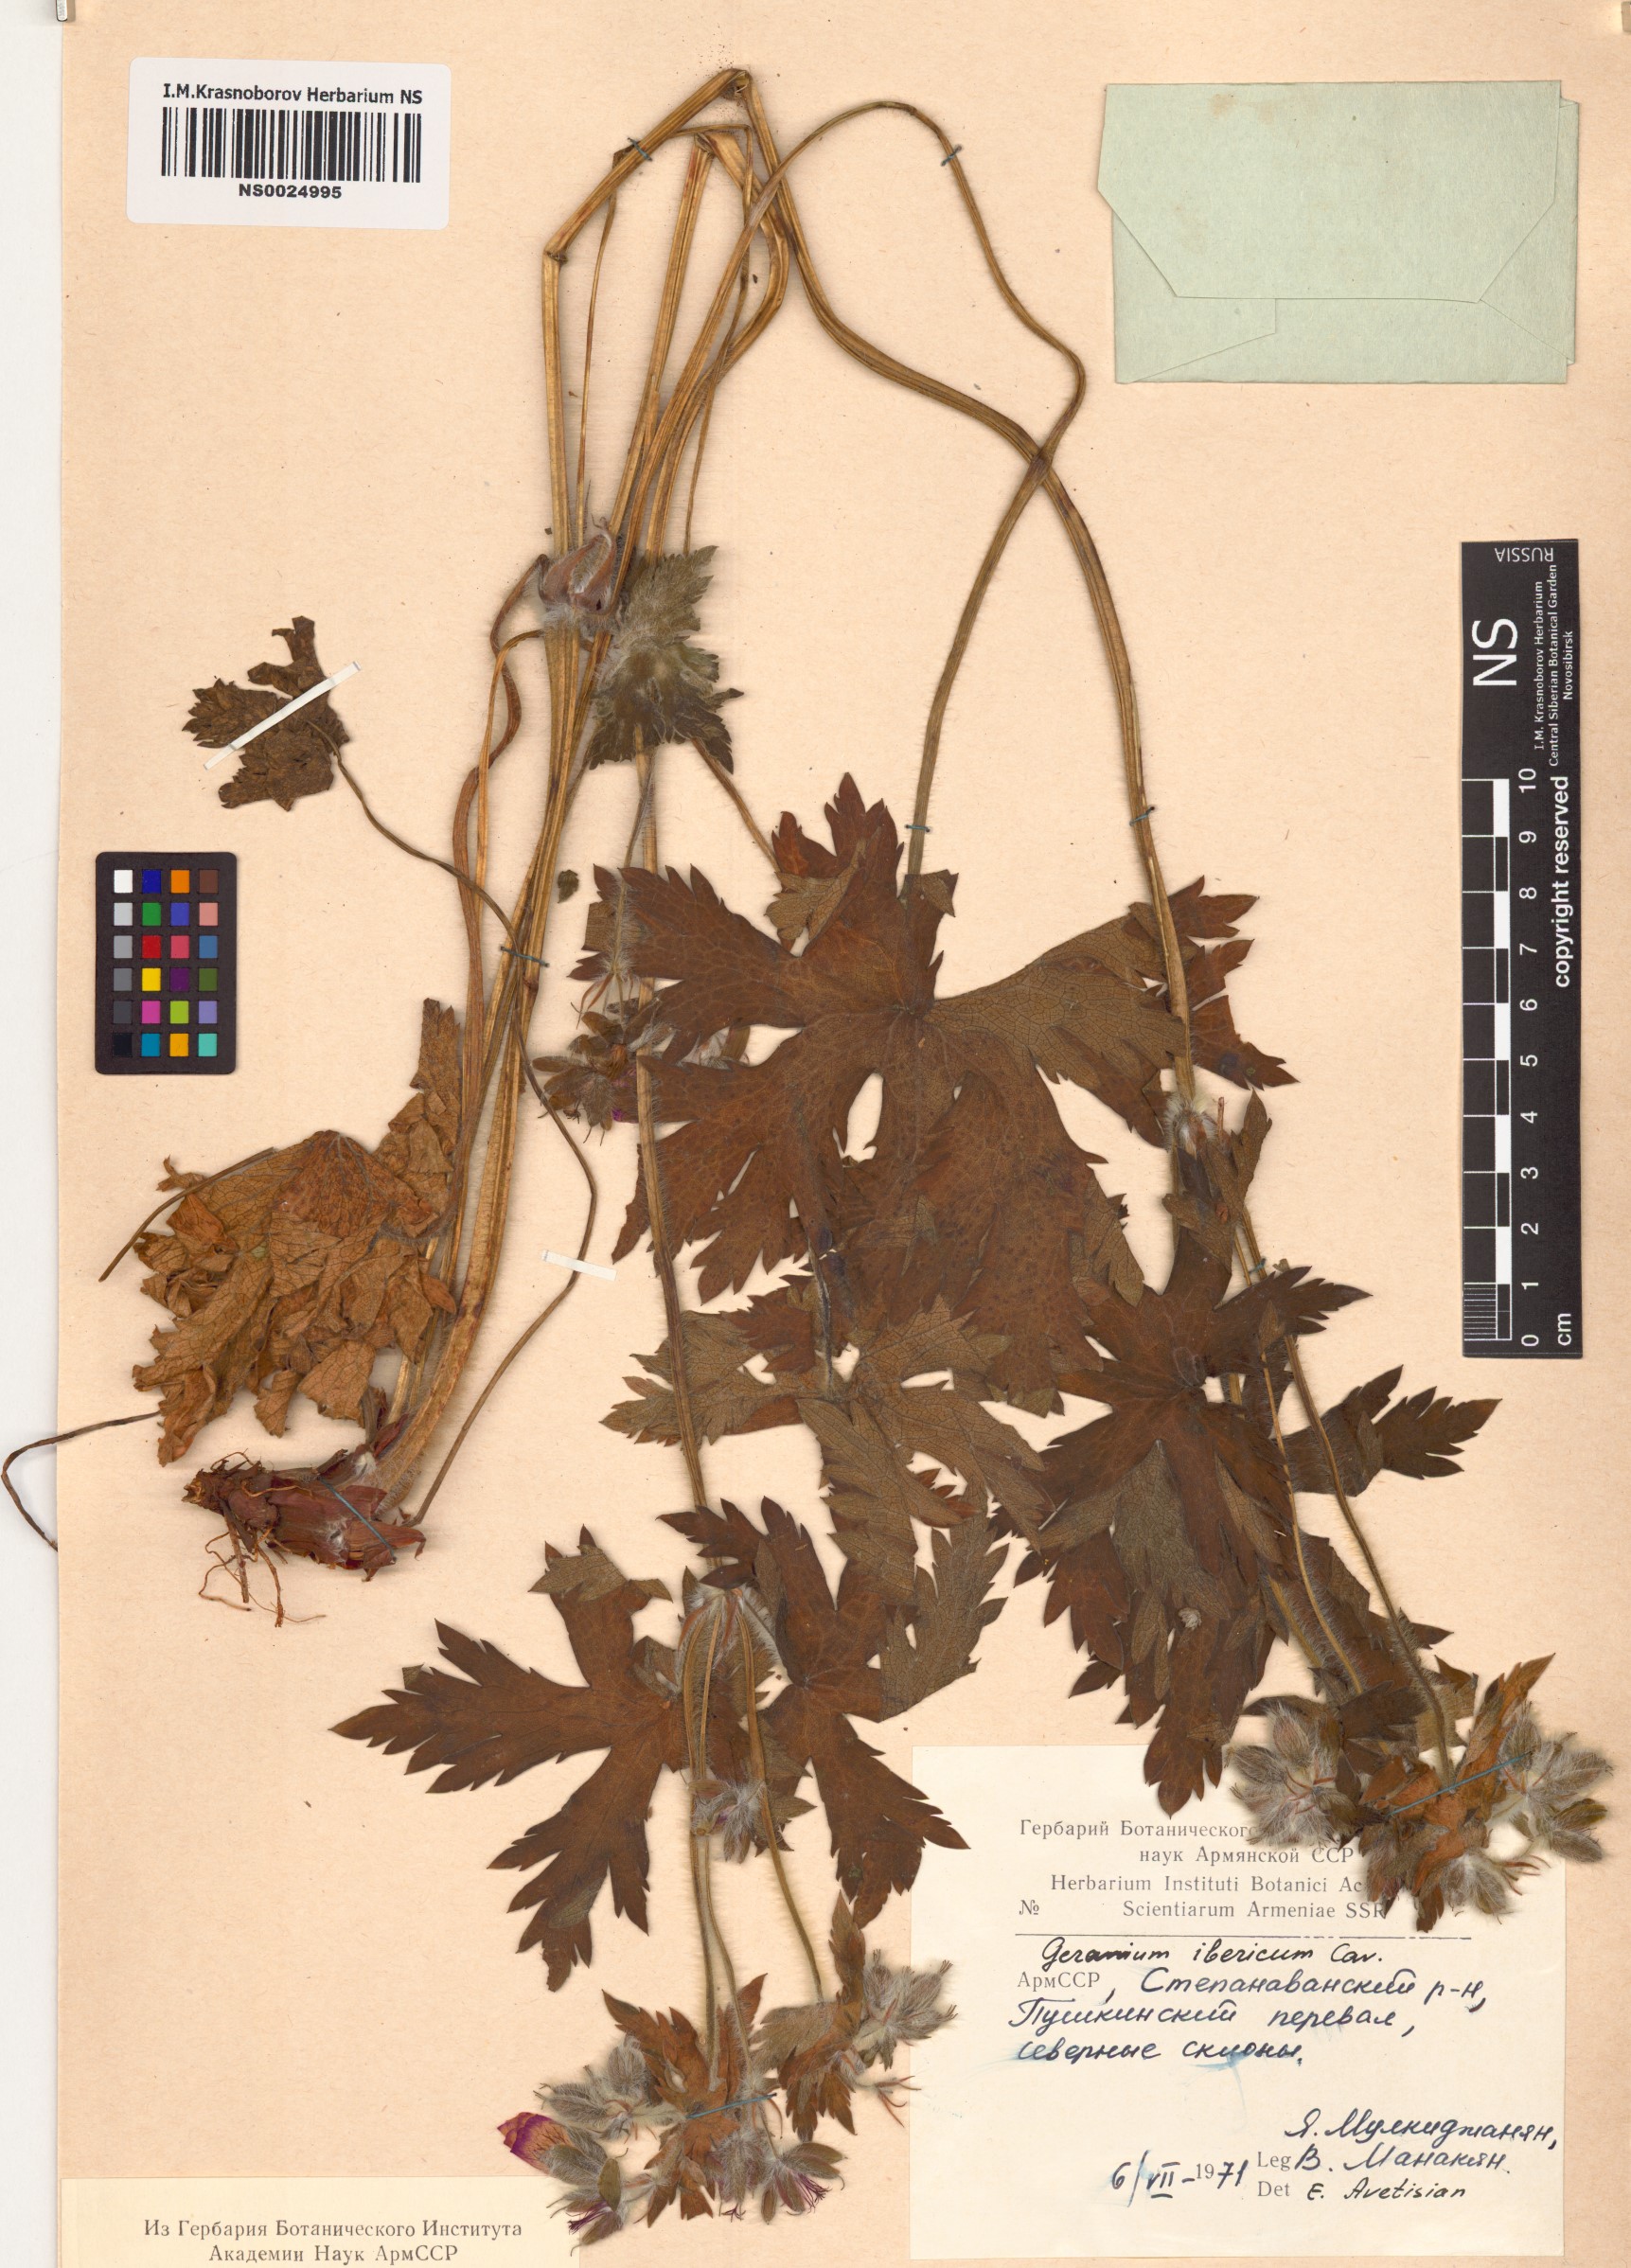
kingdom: Plantae
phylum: Tracheophyta
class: Magnoliopsida
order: Geraniales
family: Geraniaceae
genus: Geranium
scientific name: Geranium ibericum
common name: Caucasian crane's-bill
